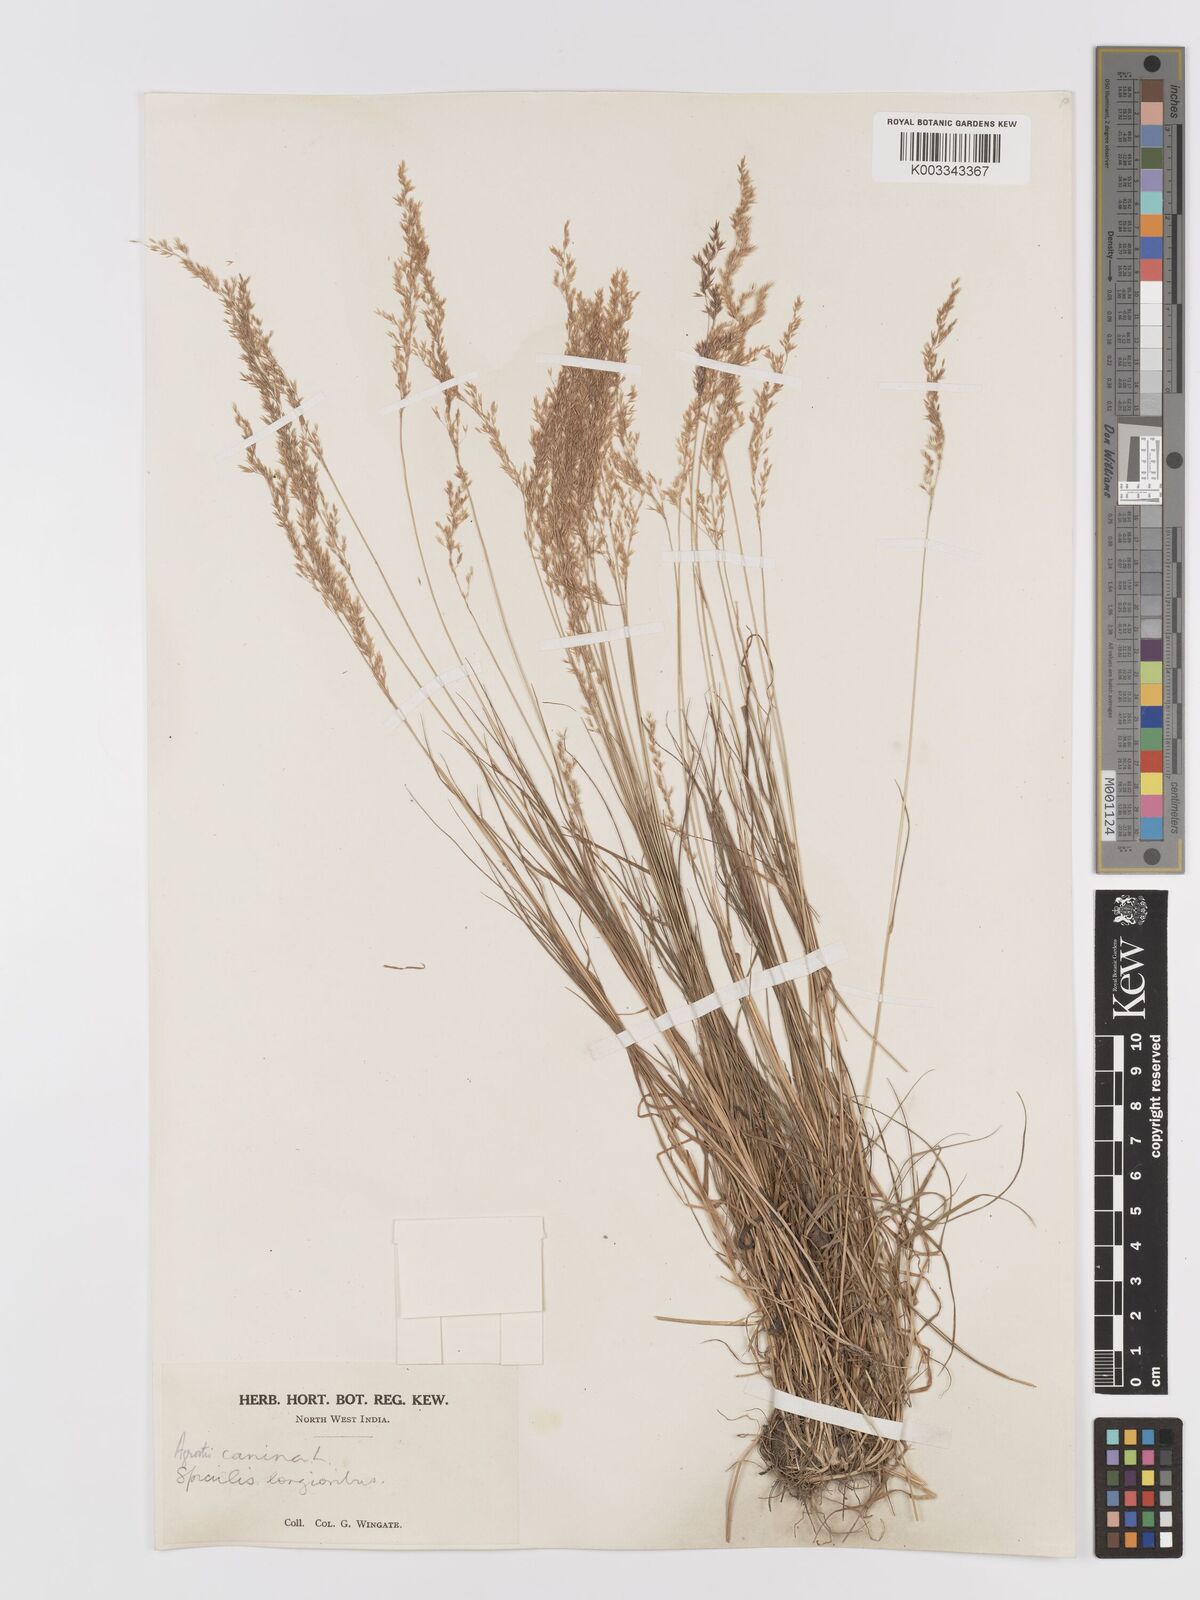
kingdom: Plantae
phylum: Tracheophyta
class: Liliopsida
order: Poales
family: Poaceae
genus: Agrostis
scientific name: Agrostis
